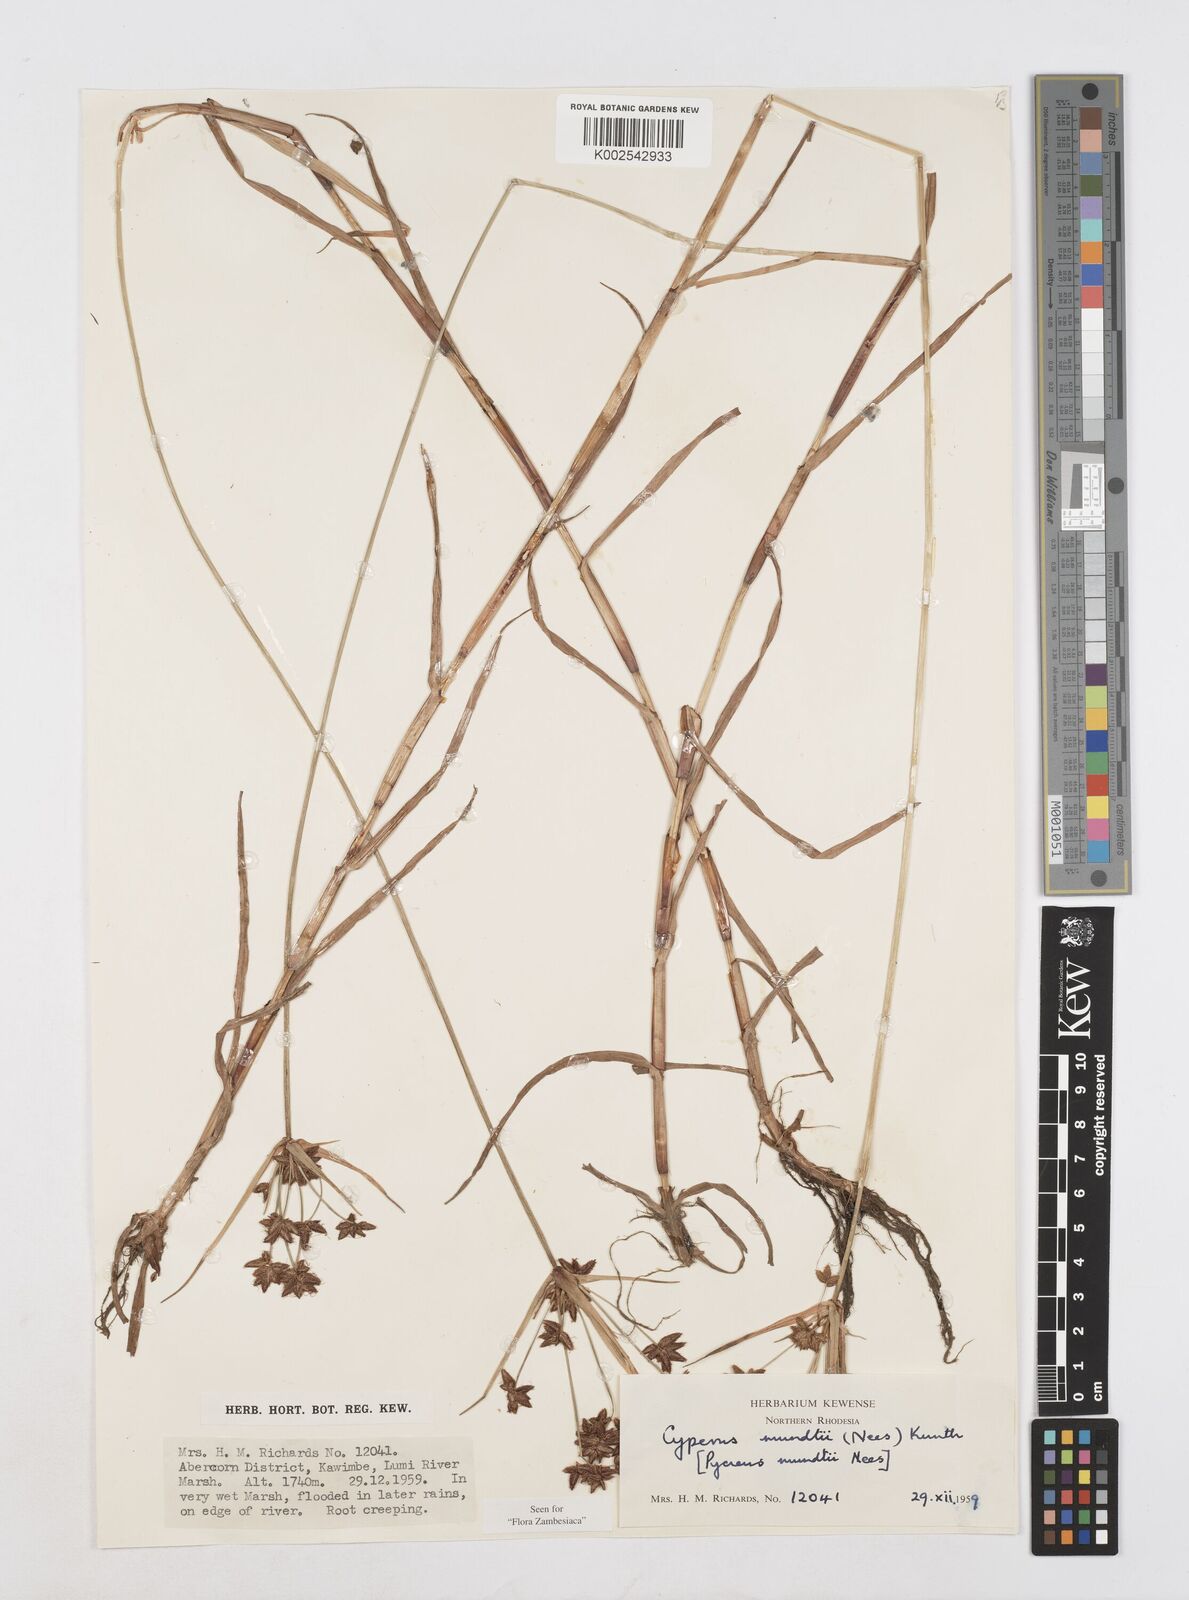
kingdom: Plantae
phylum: Tracheophyta
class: Liliopsida
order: Poales
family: Cyperaceae
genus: Cyperus
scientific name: Cyperus mundii
